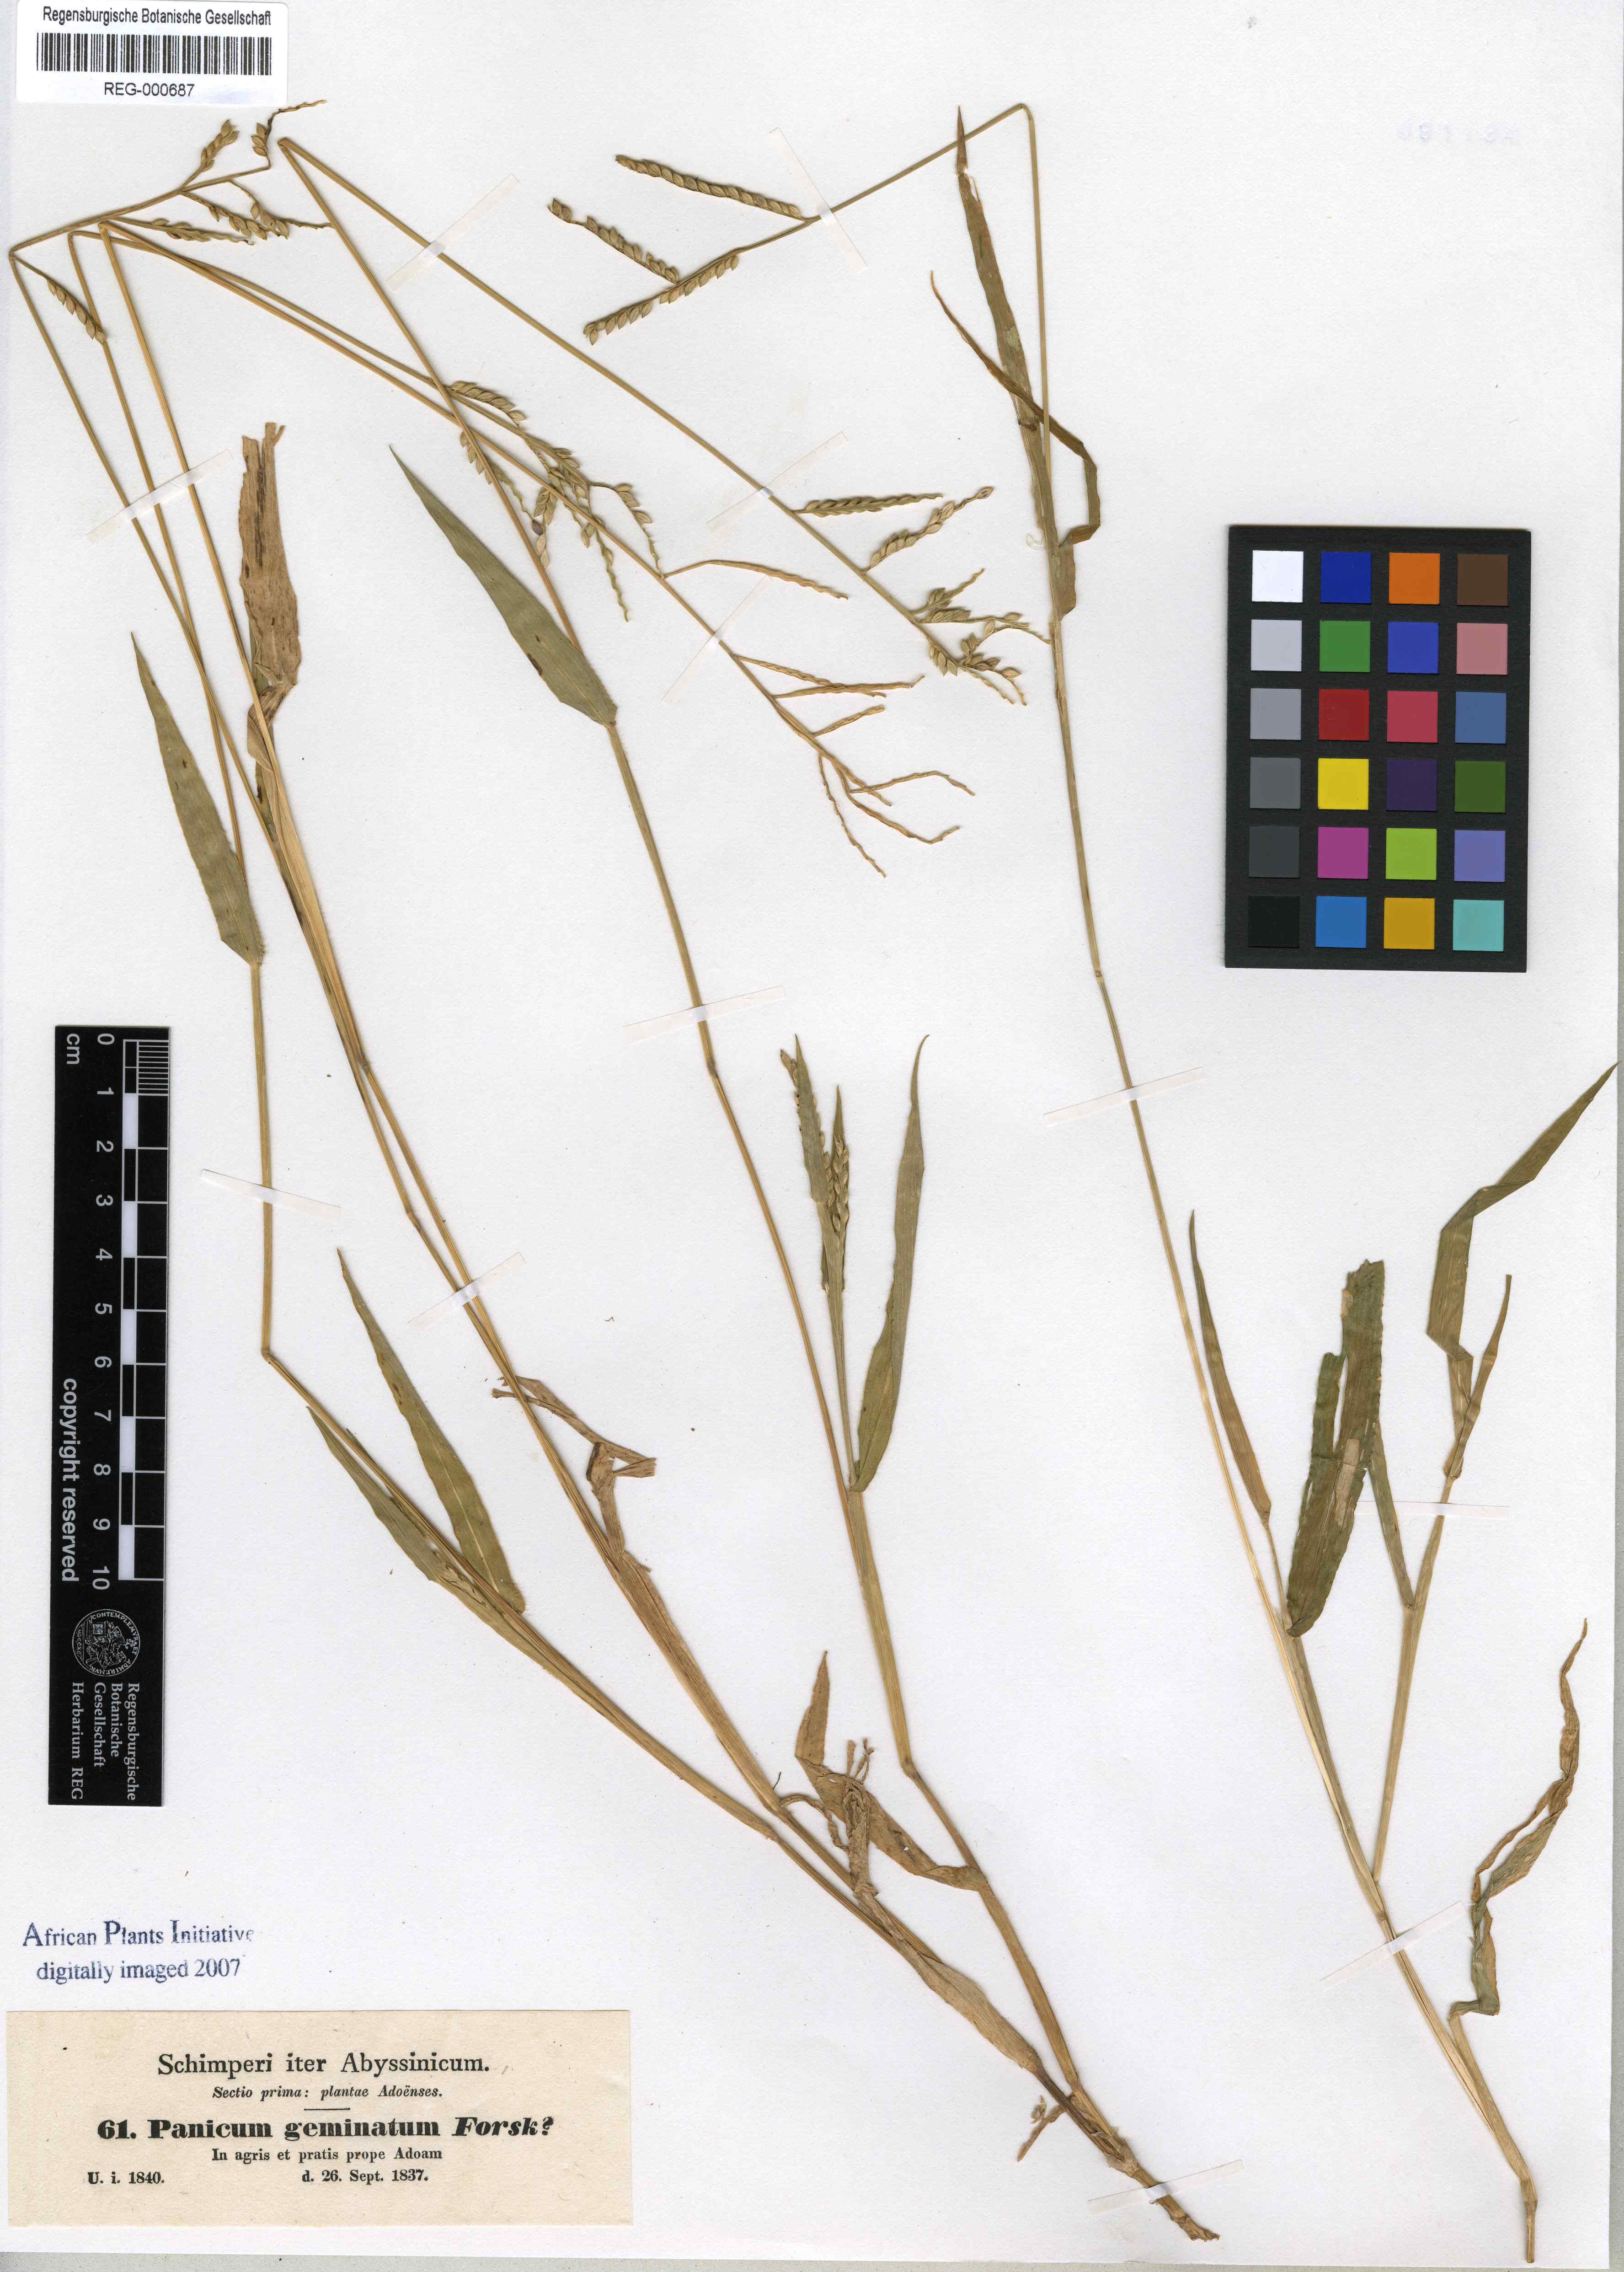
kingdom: Plantae
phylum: Tracheophyta
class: Liliopsida
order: Poales
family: Poaceae
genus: Setaria
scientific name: Setaria geminata
